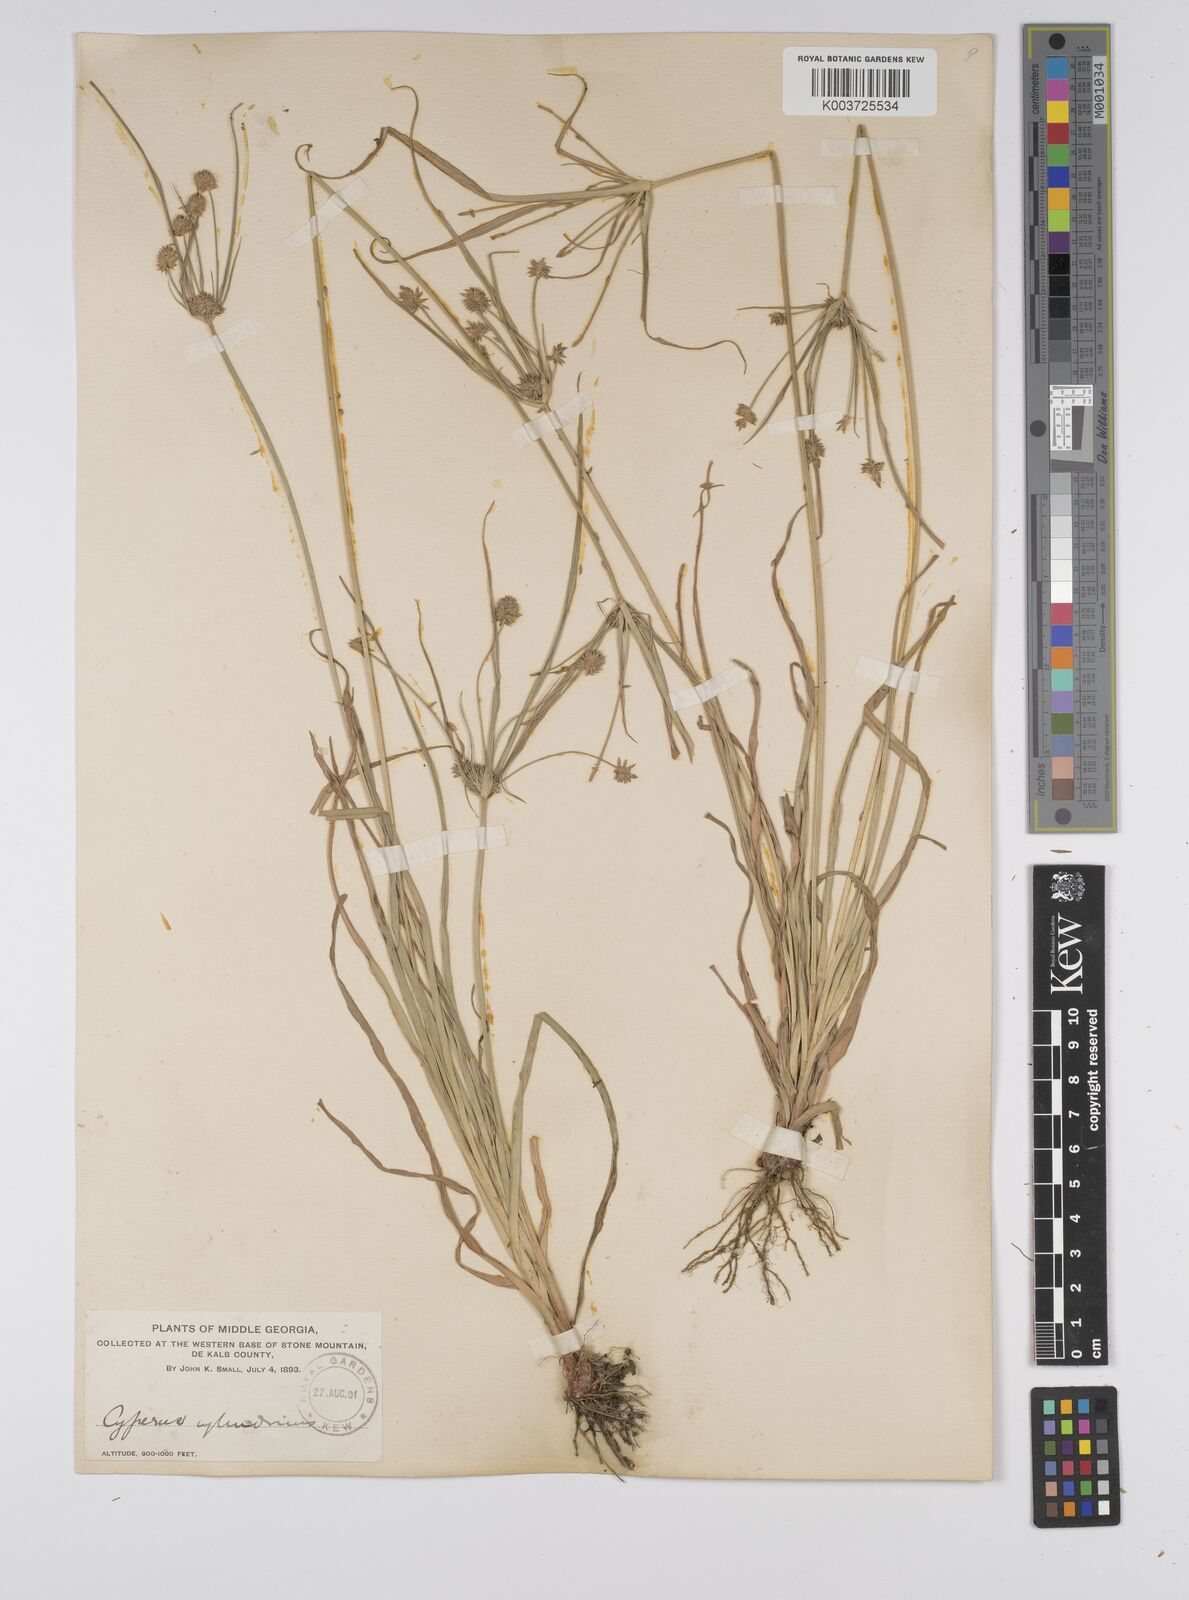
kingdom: Plantae
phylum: Tracheophyta
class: Liliopsida
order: Poales
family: Cyperaceae
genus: Cyperus
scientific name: Cyperus retrorsus
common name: Pinebarren flat sedge
